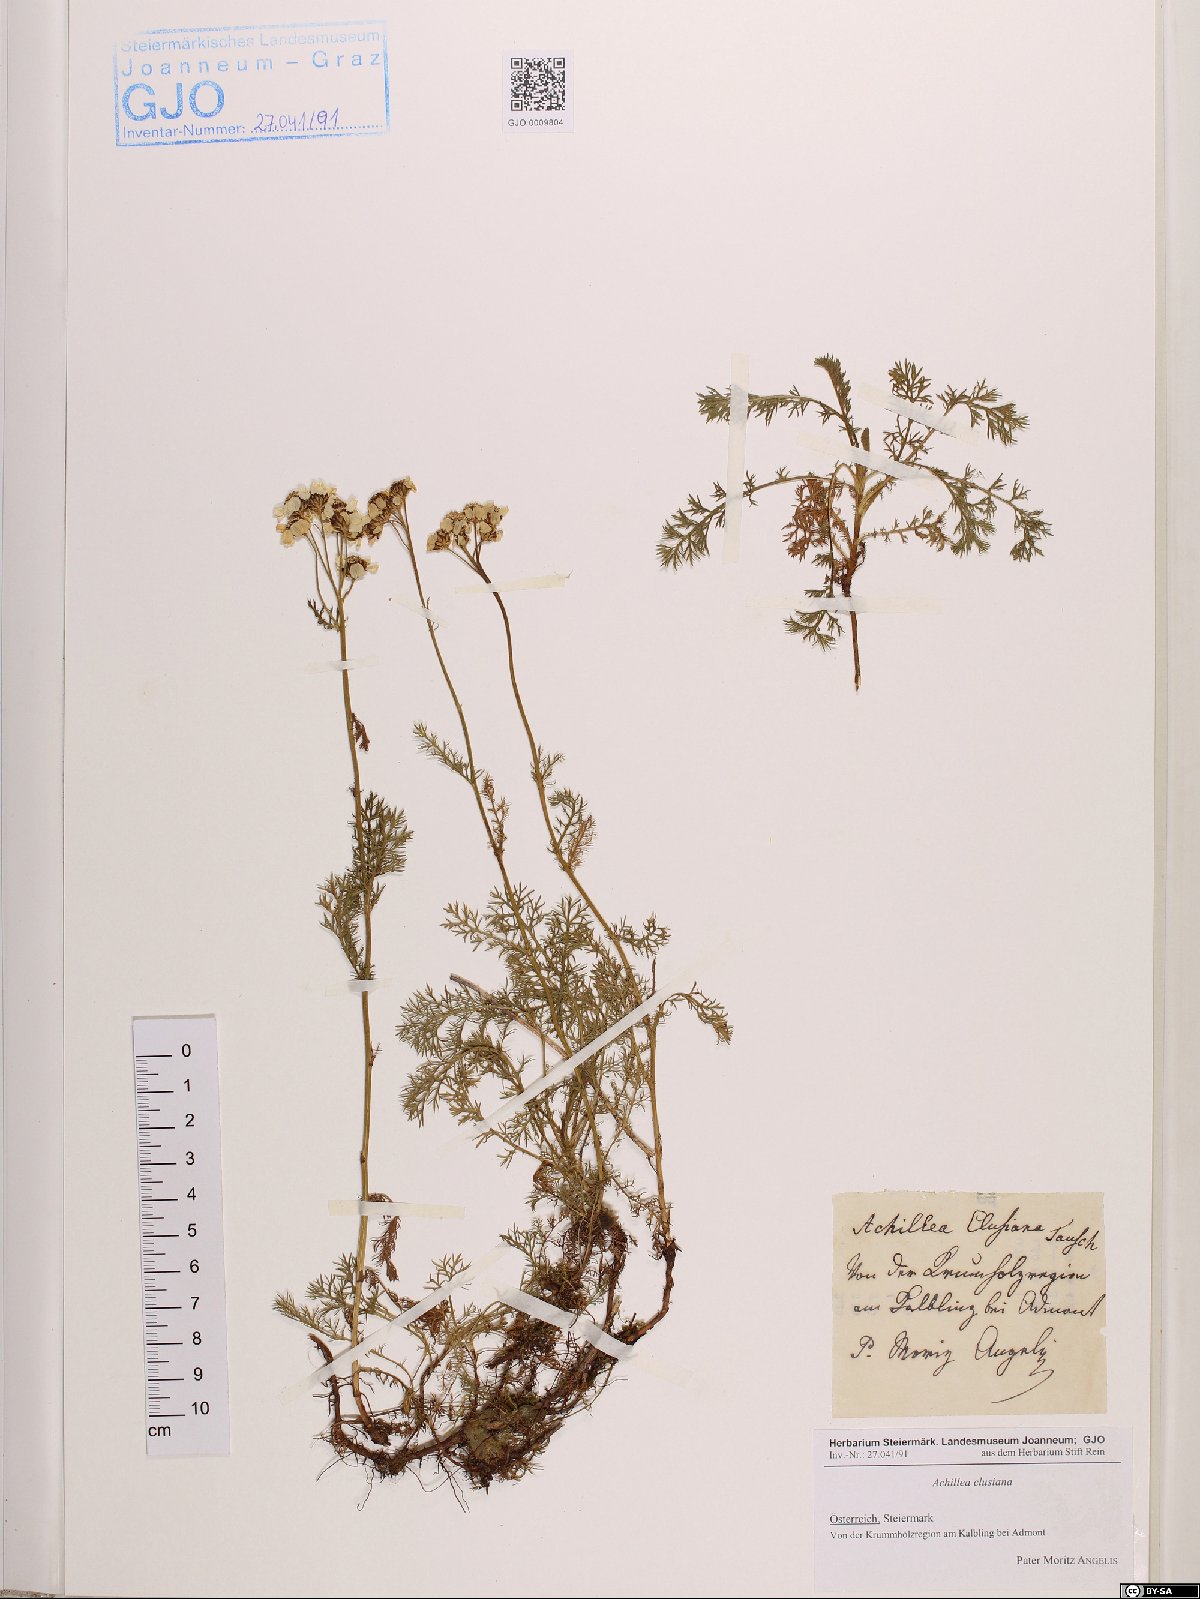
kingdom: Plantae
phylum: Tracheophyta
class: Magnoliopsida
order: Asterales
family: Asteraceae
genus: Achillea
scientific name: Achillea clusiana
